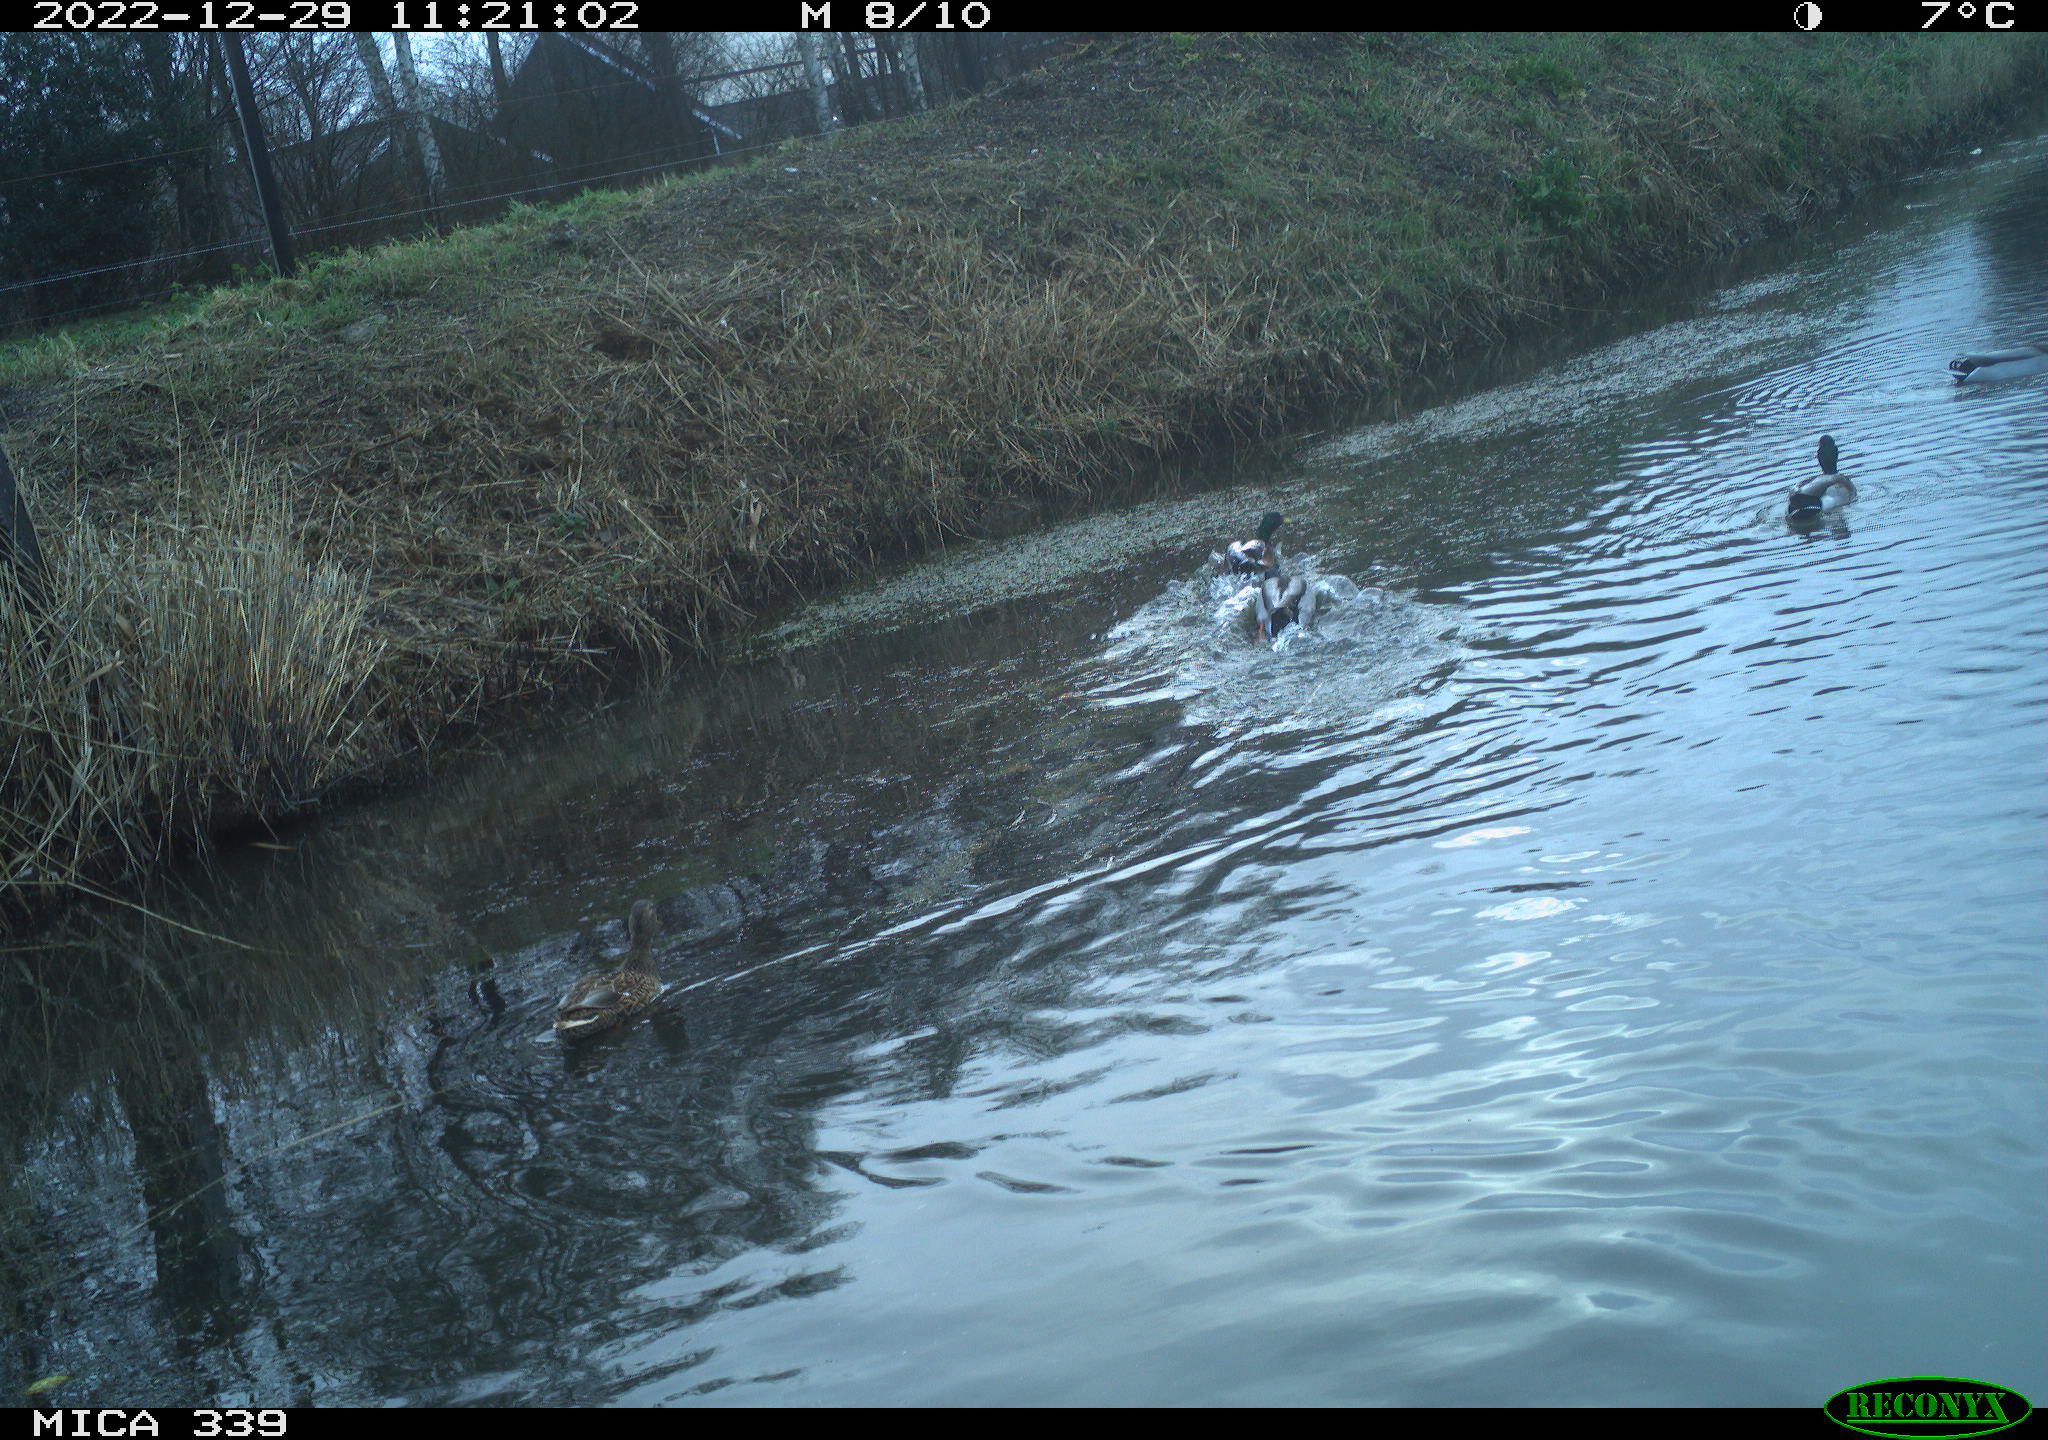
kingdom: Animalia
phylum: Chordata
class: Aves
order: Anseriformes
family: Anatidae
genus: Anas
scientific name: Anas
